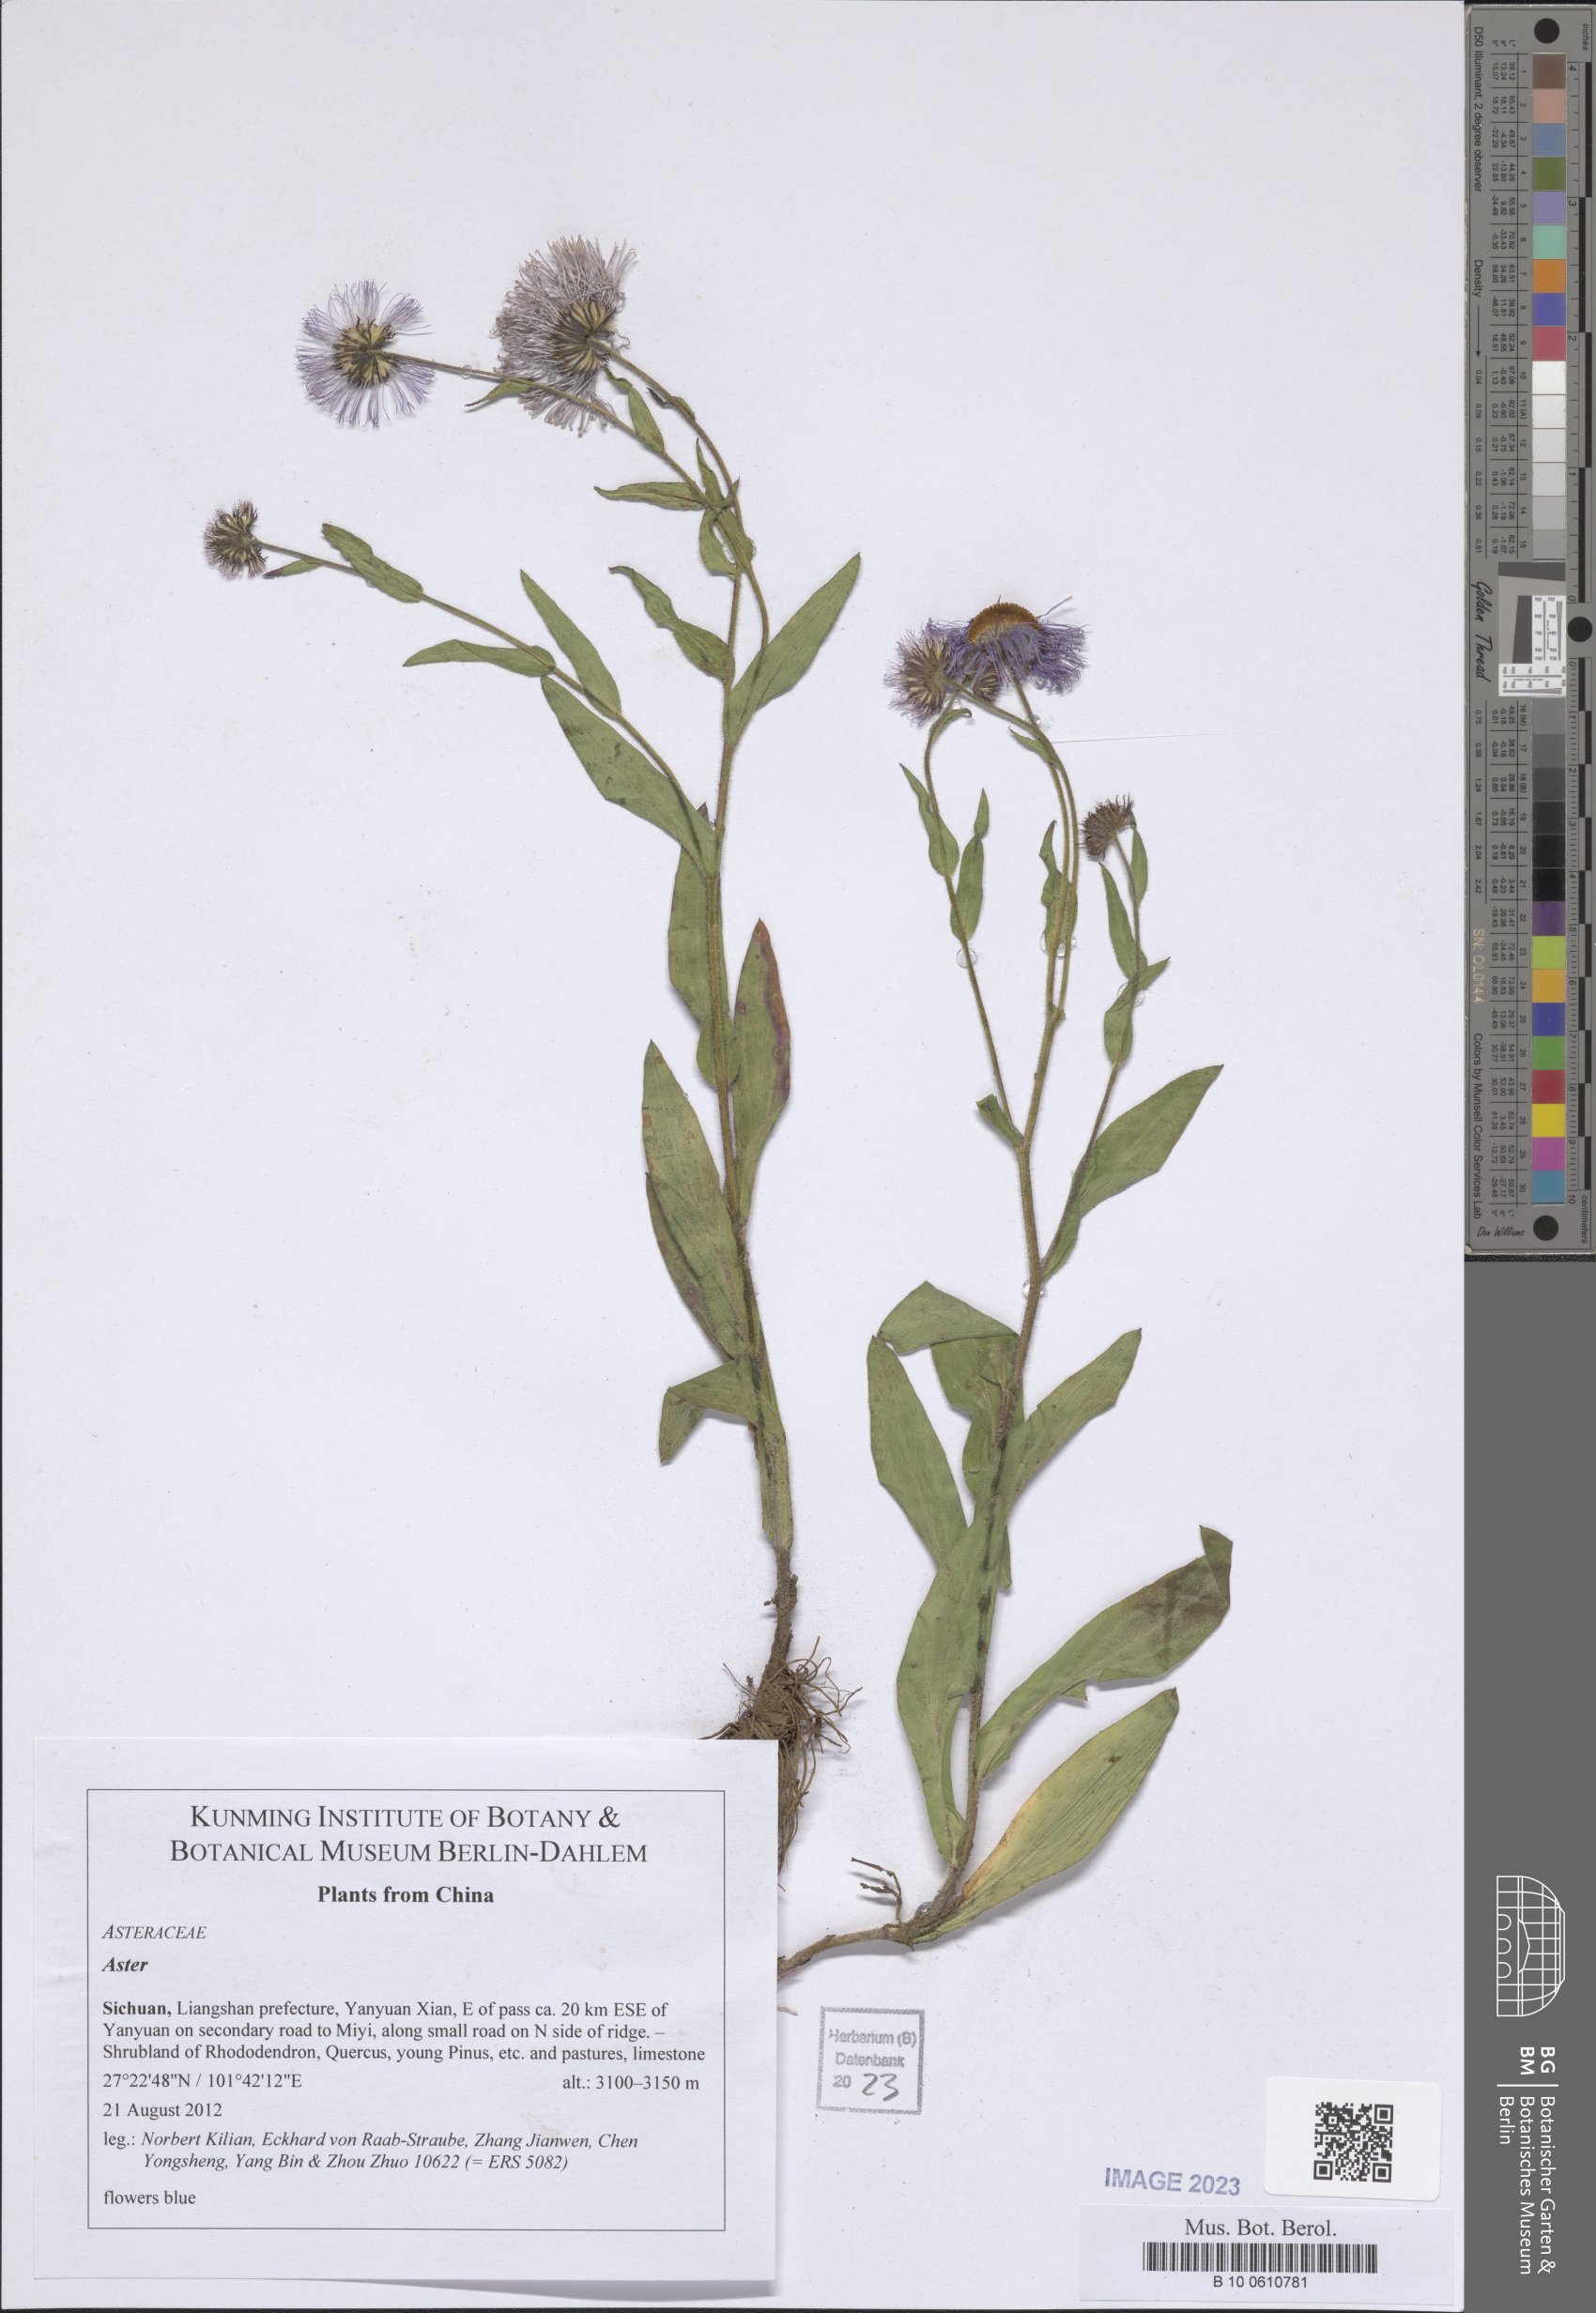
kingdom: Plantae
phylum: Tracheophyta
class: Magnoliopsida
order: Asterales
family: Asteraceae
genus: Aster
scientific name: Aster
